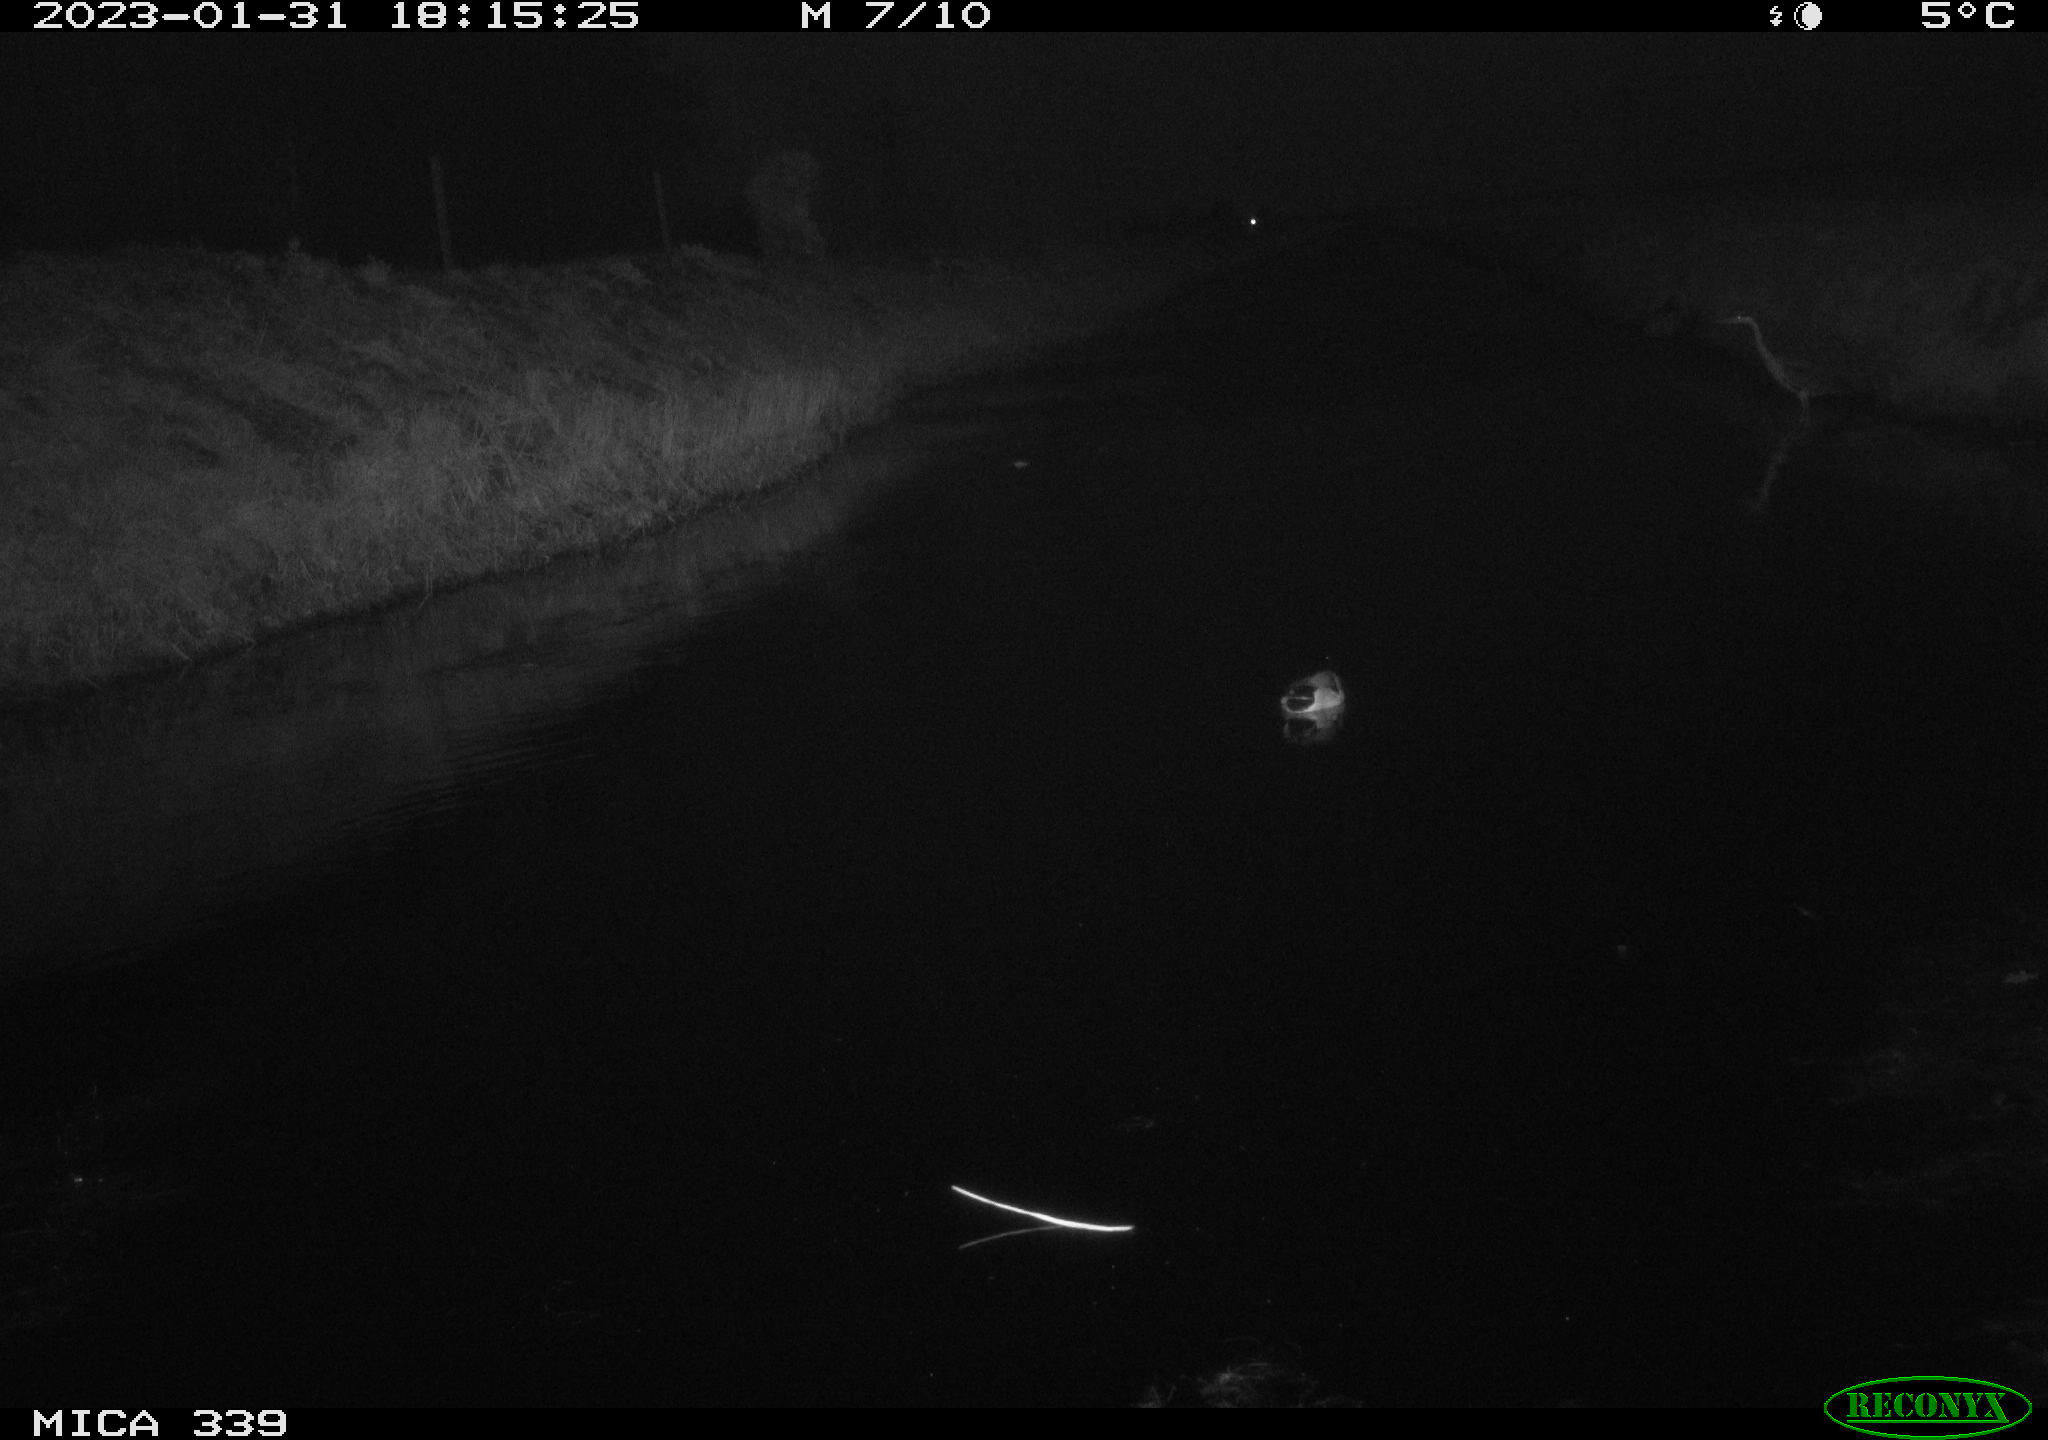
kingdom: Animalia
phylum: Chordata
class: Aves
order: Anseriformes
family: Anatidae
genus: Anas
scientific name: Anas
